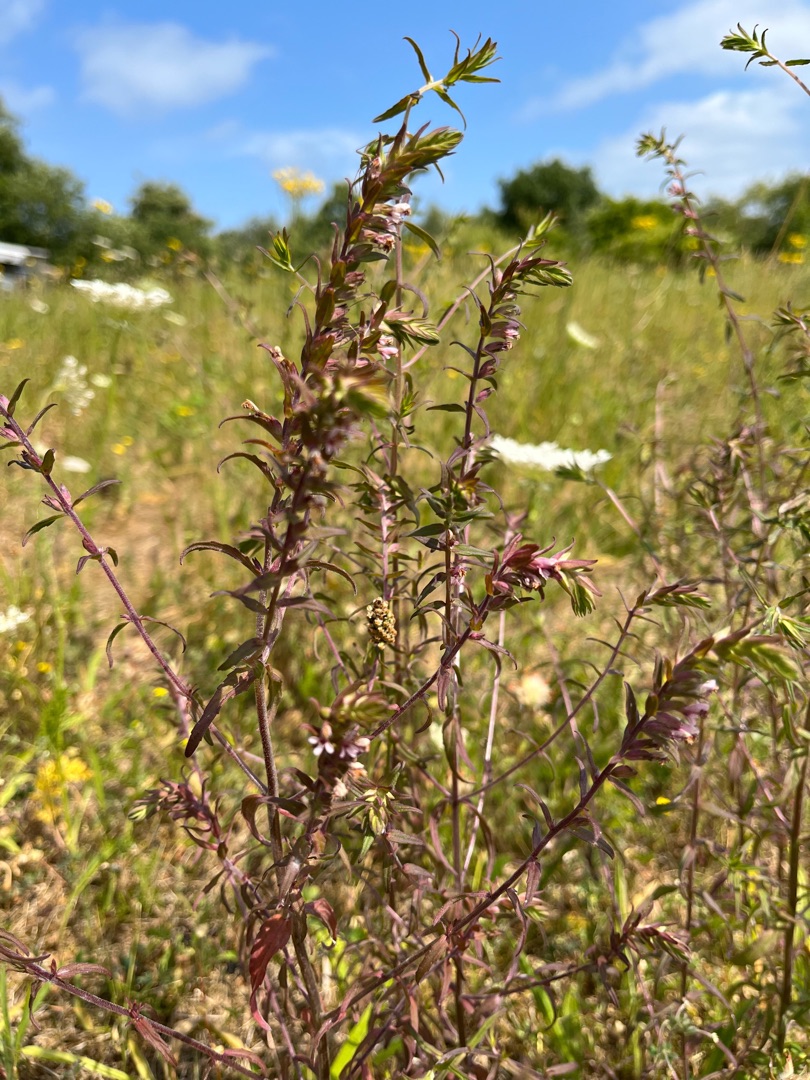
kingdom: Plantae
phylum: Tracheophyta
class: Magnoliopsida
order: Lamiales
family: Orobanchaceae
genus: Odontites
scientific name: Odontites vulgaris
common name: Høst-rødtop
